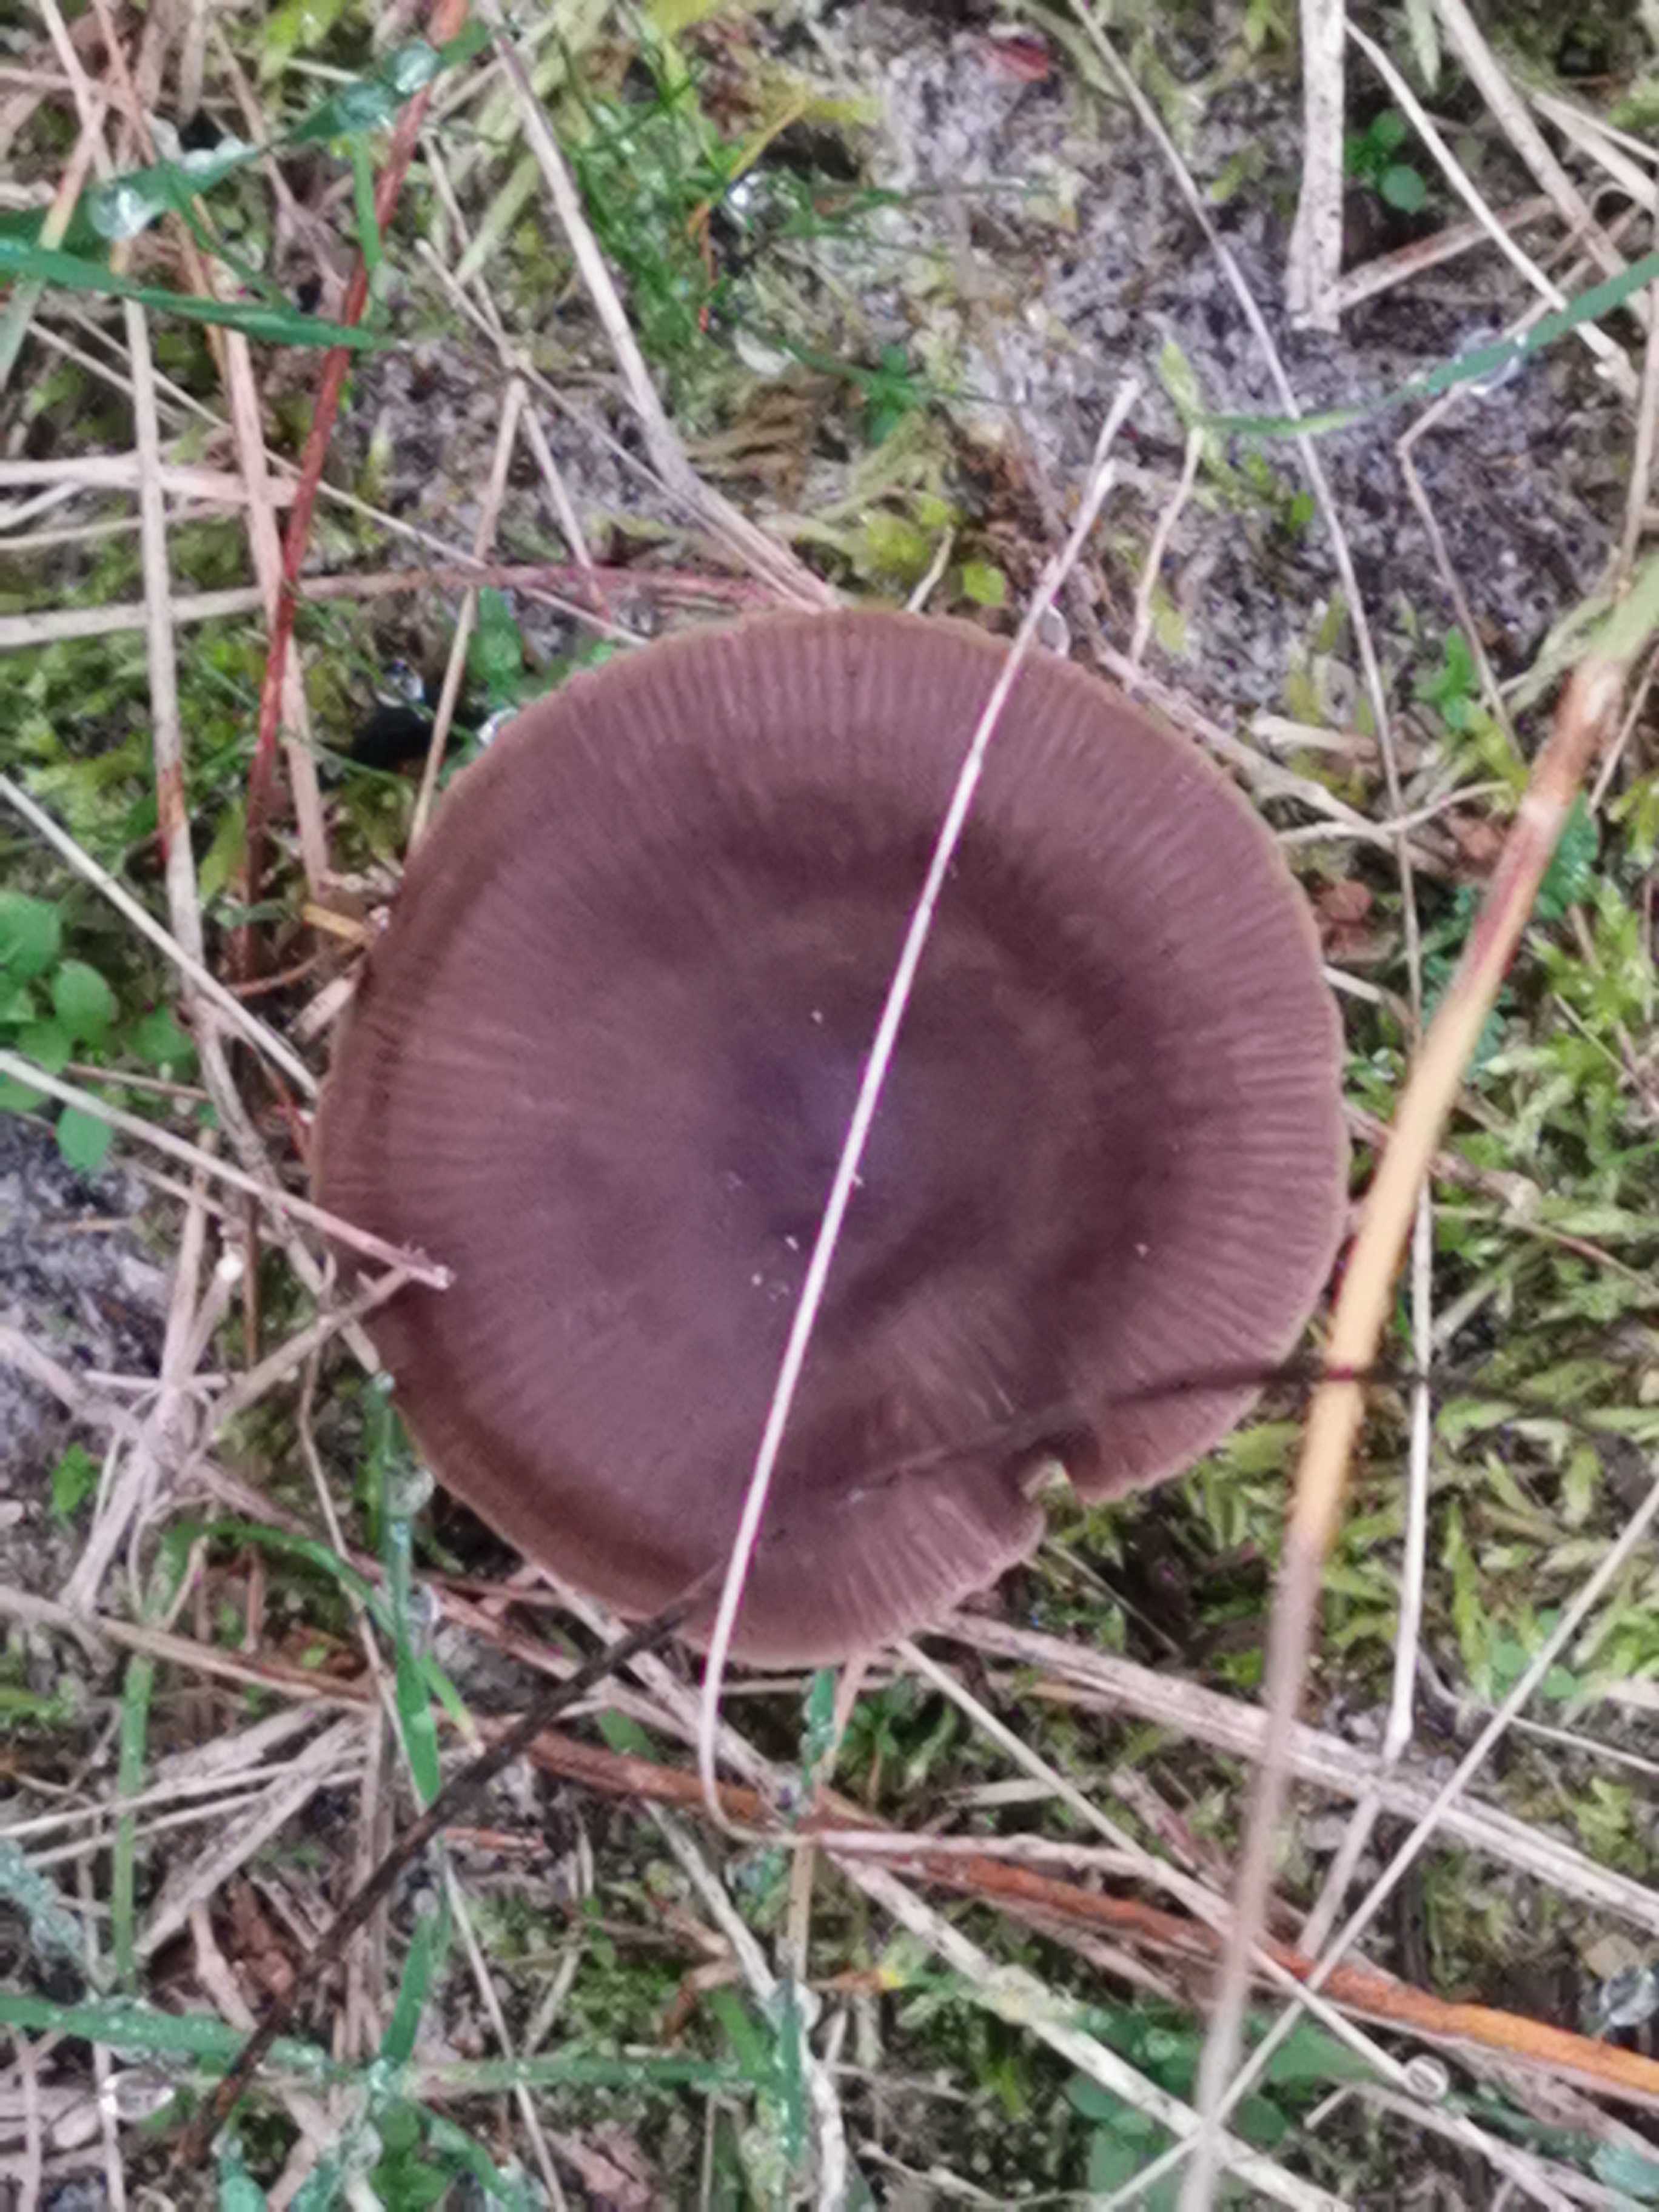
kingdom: Fungi
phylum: Basidiomycota
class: Agaricomycetes
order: Agaricales
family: Entolomataceae
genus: Entoloma
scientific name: Entoloma sericeum
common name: silkeglinsende rødblad
